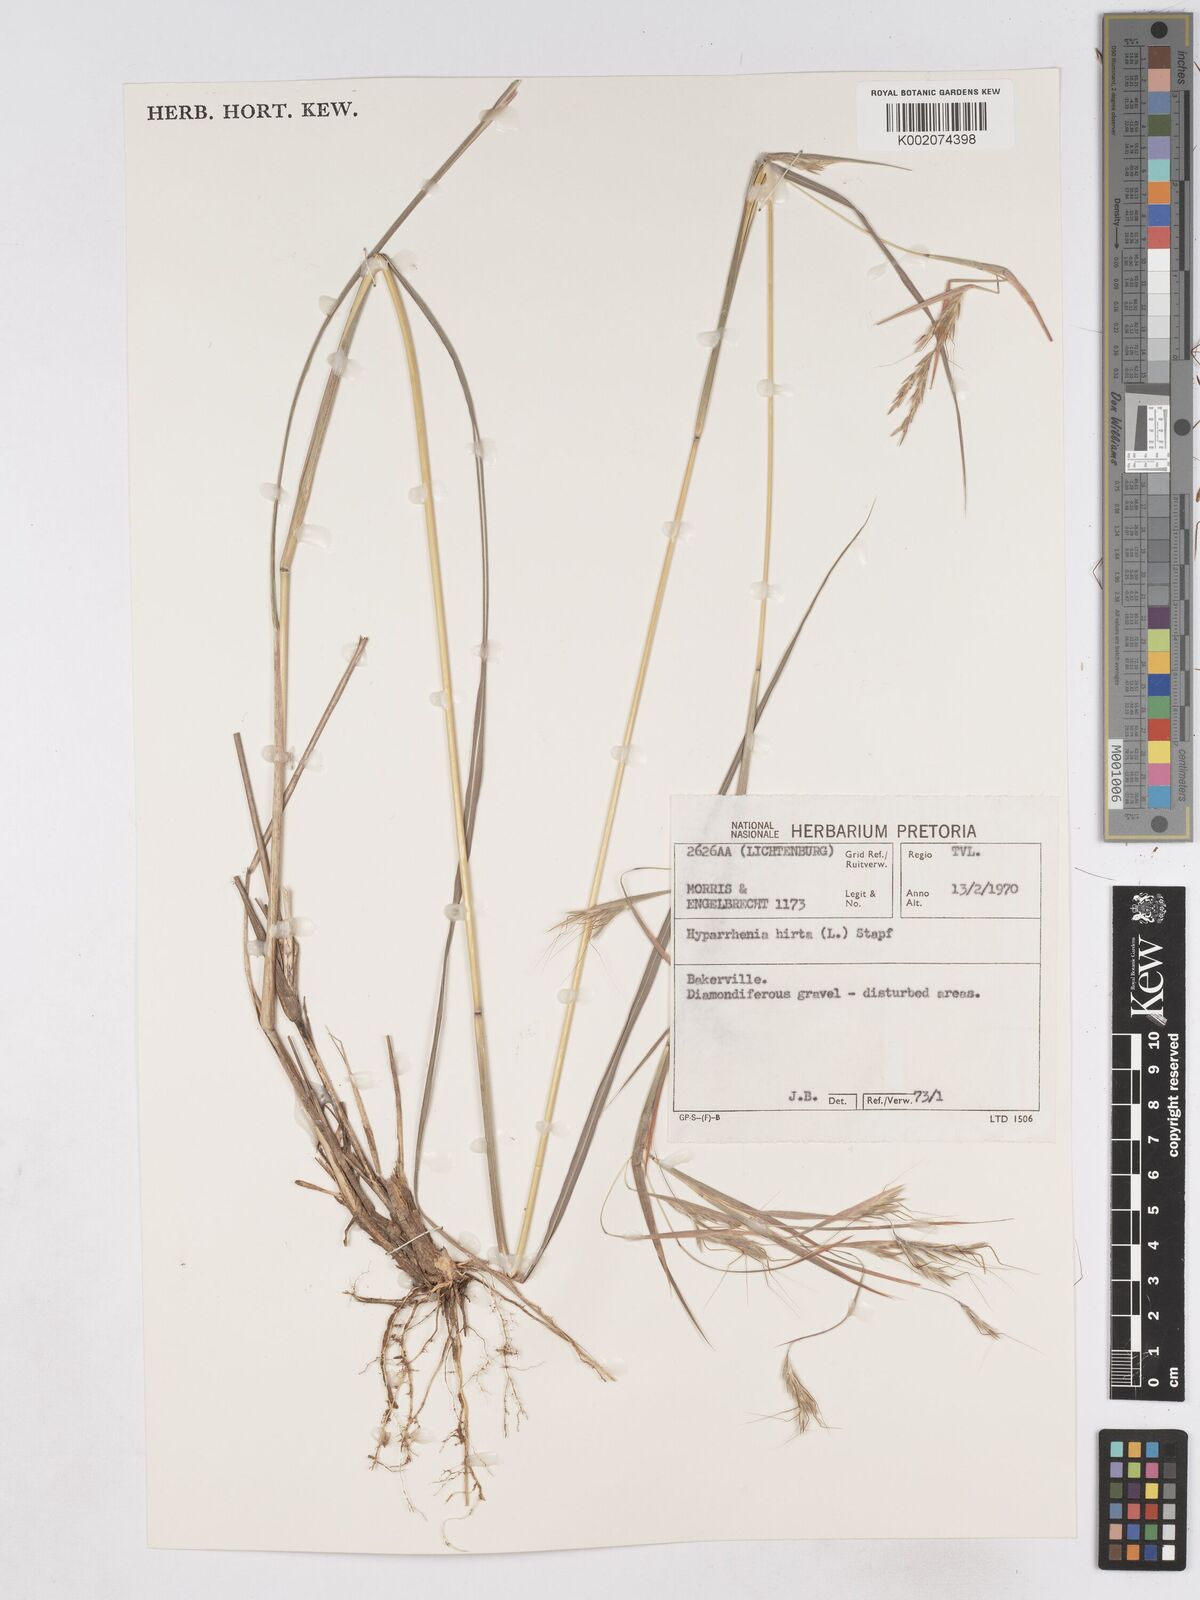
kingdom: Plantae
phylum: Tracheophyta
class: Liliopsida
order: Poales
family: Poaceae
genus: Hyparrhenia
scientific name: Hyparrhenia hirta
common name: Thatching grass
